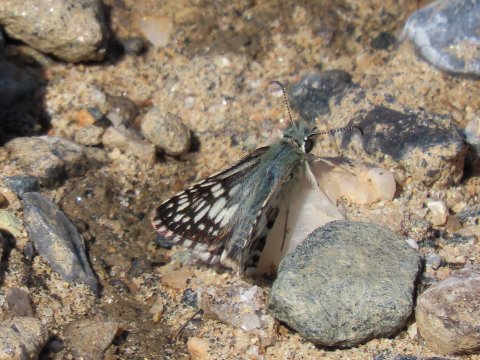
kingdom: Animalia
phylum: Arthropoda
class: Insecta
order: Lepidoptera
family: Hesperiidae
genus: Pyrgus
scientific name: Pyrgus communis
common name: Common Checkered-Skipper
